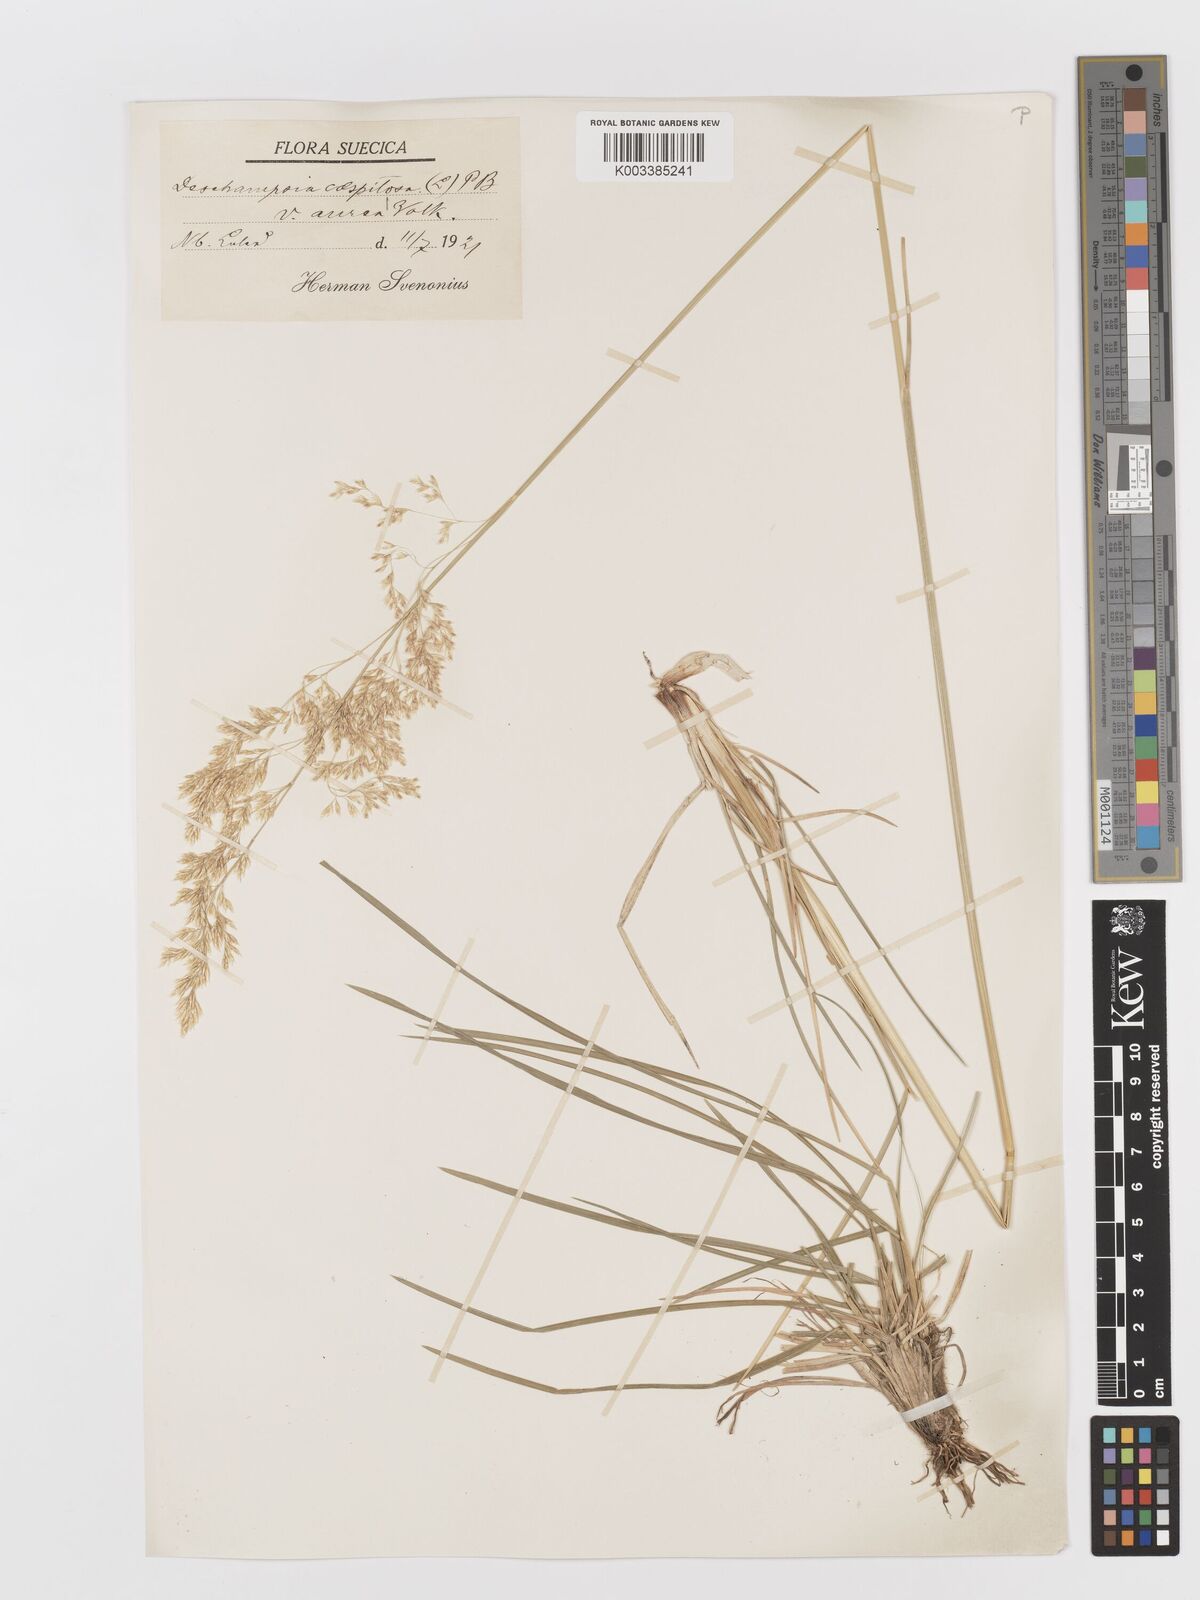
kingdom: Plantae
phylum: Tracheophyta
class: Liliopsida
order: Poales
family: Poaceae
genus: Deschampsia
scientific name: Deschampsia cespitosa
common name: Tufted hair-grass
